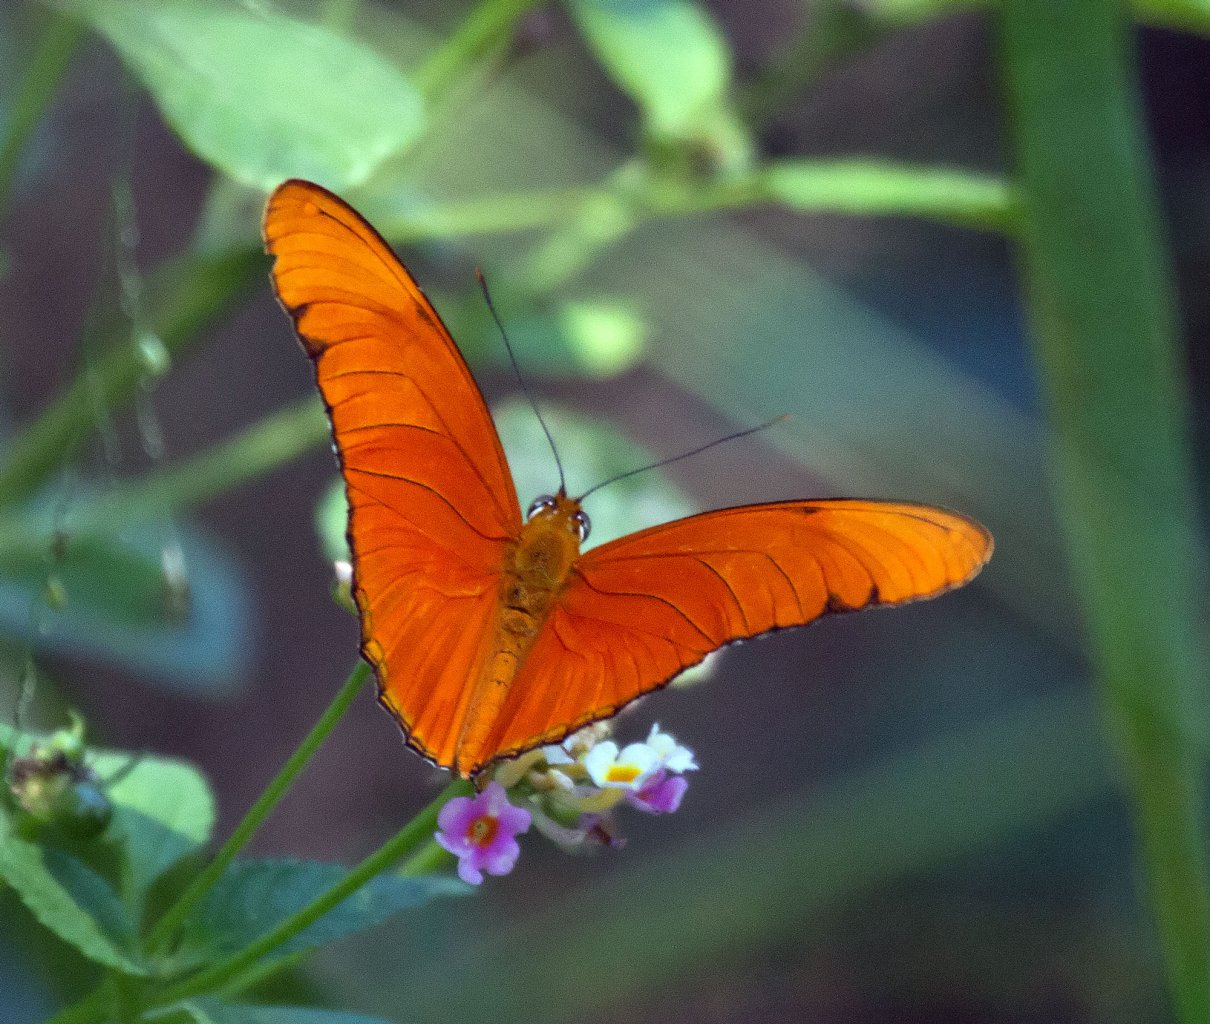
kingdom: Animalia
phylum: Arthropoda
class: Insecta
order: Lepidoptera
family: Nymphalidae
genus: Dryas
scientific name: Dryas iulia
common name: Julia
